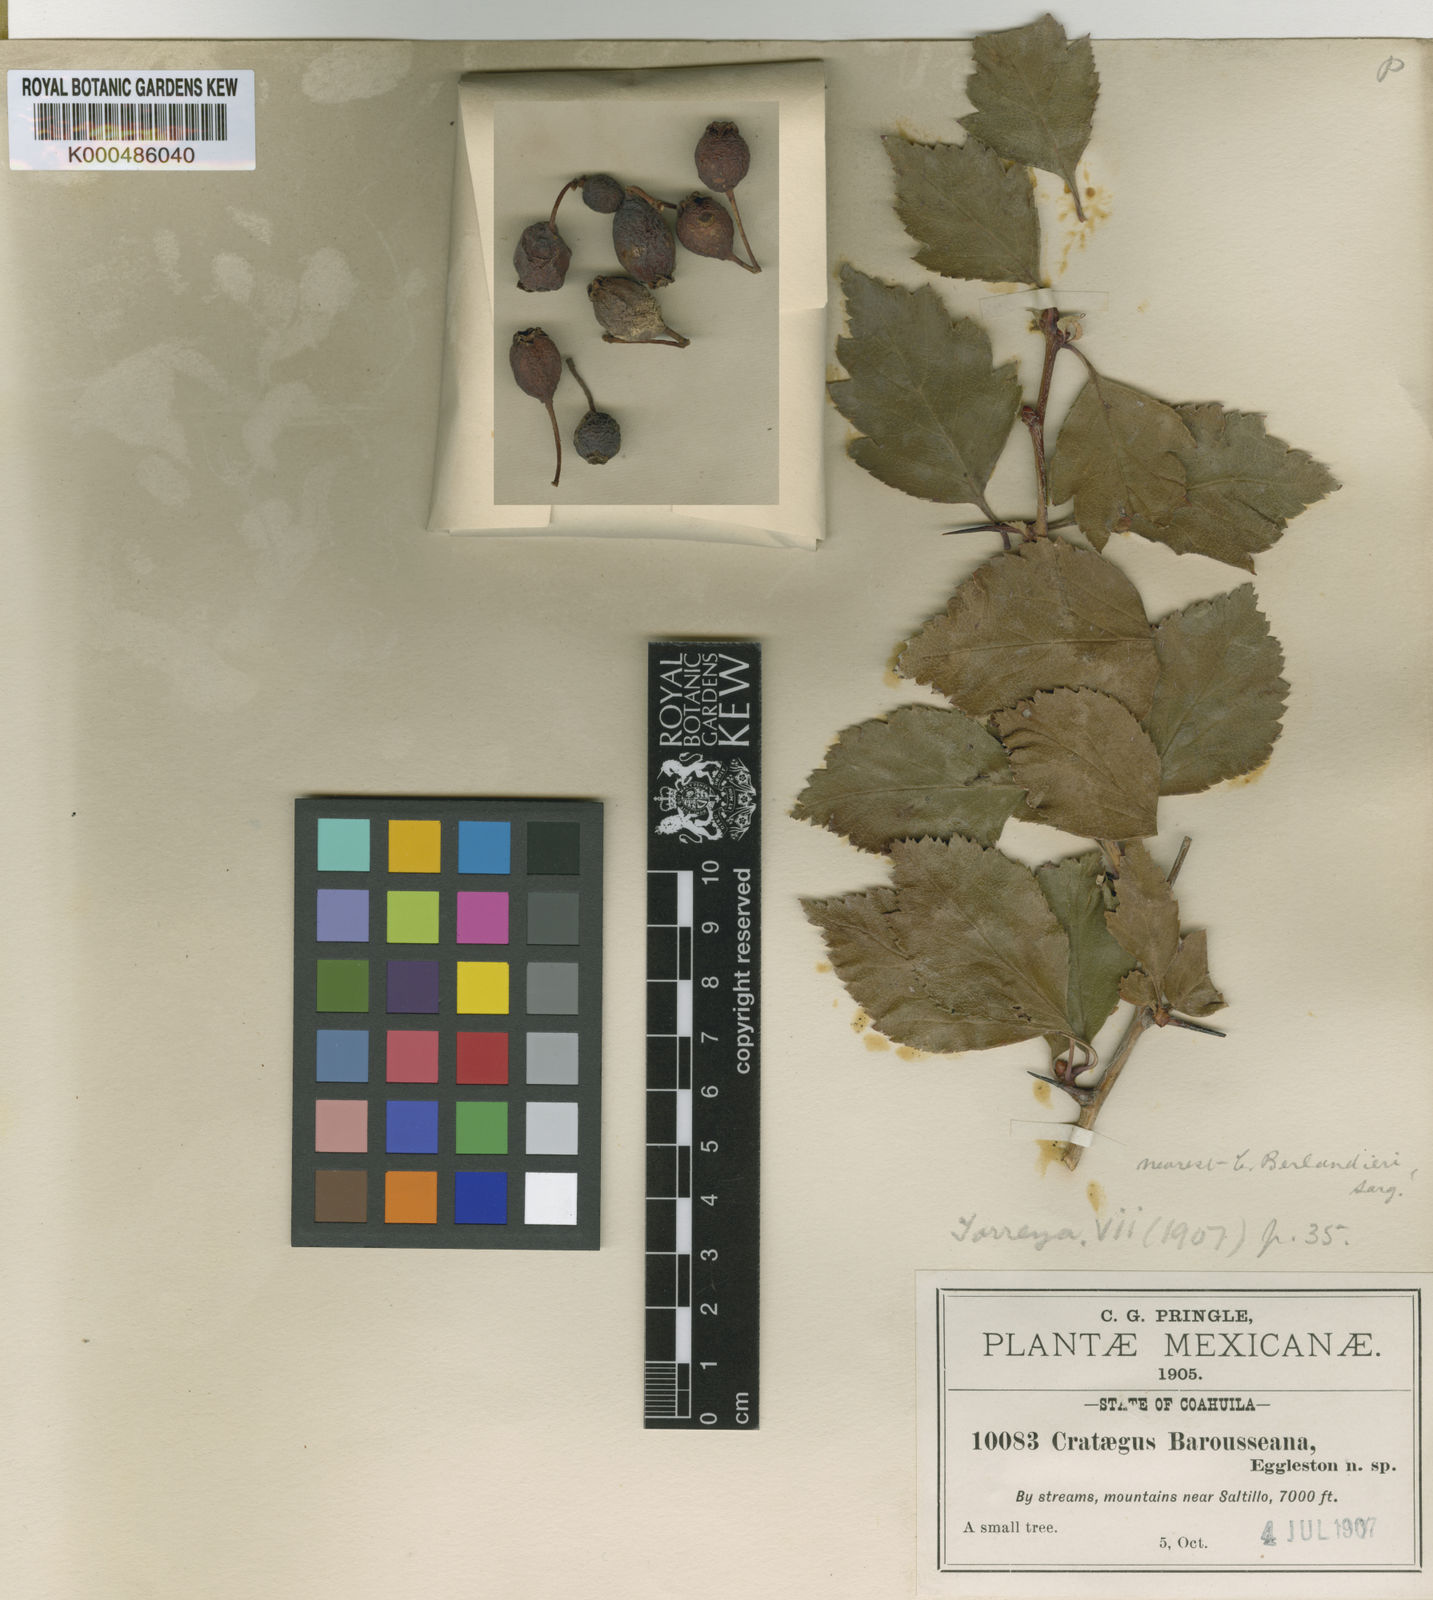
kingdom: Plantae
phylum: Tracheophyta
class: Magnoliopsida
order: Rosales
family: Rosaceae
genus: Crataegus
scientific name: Crataegus baroussana
